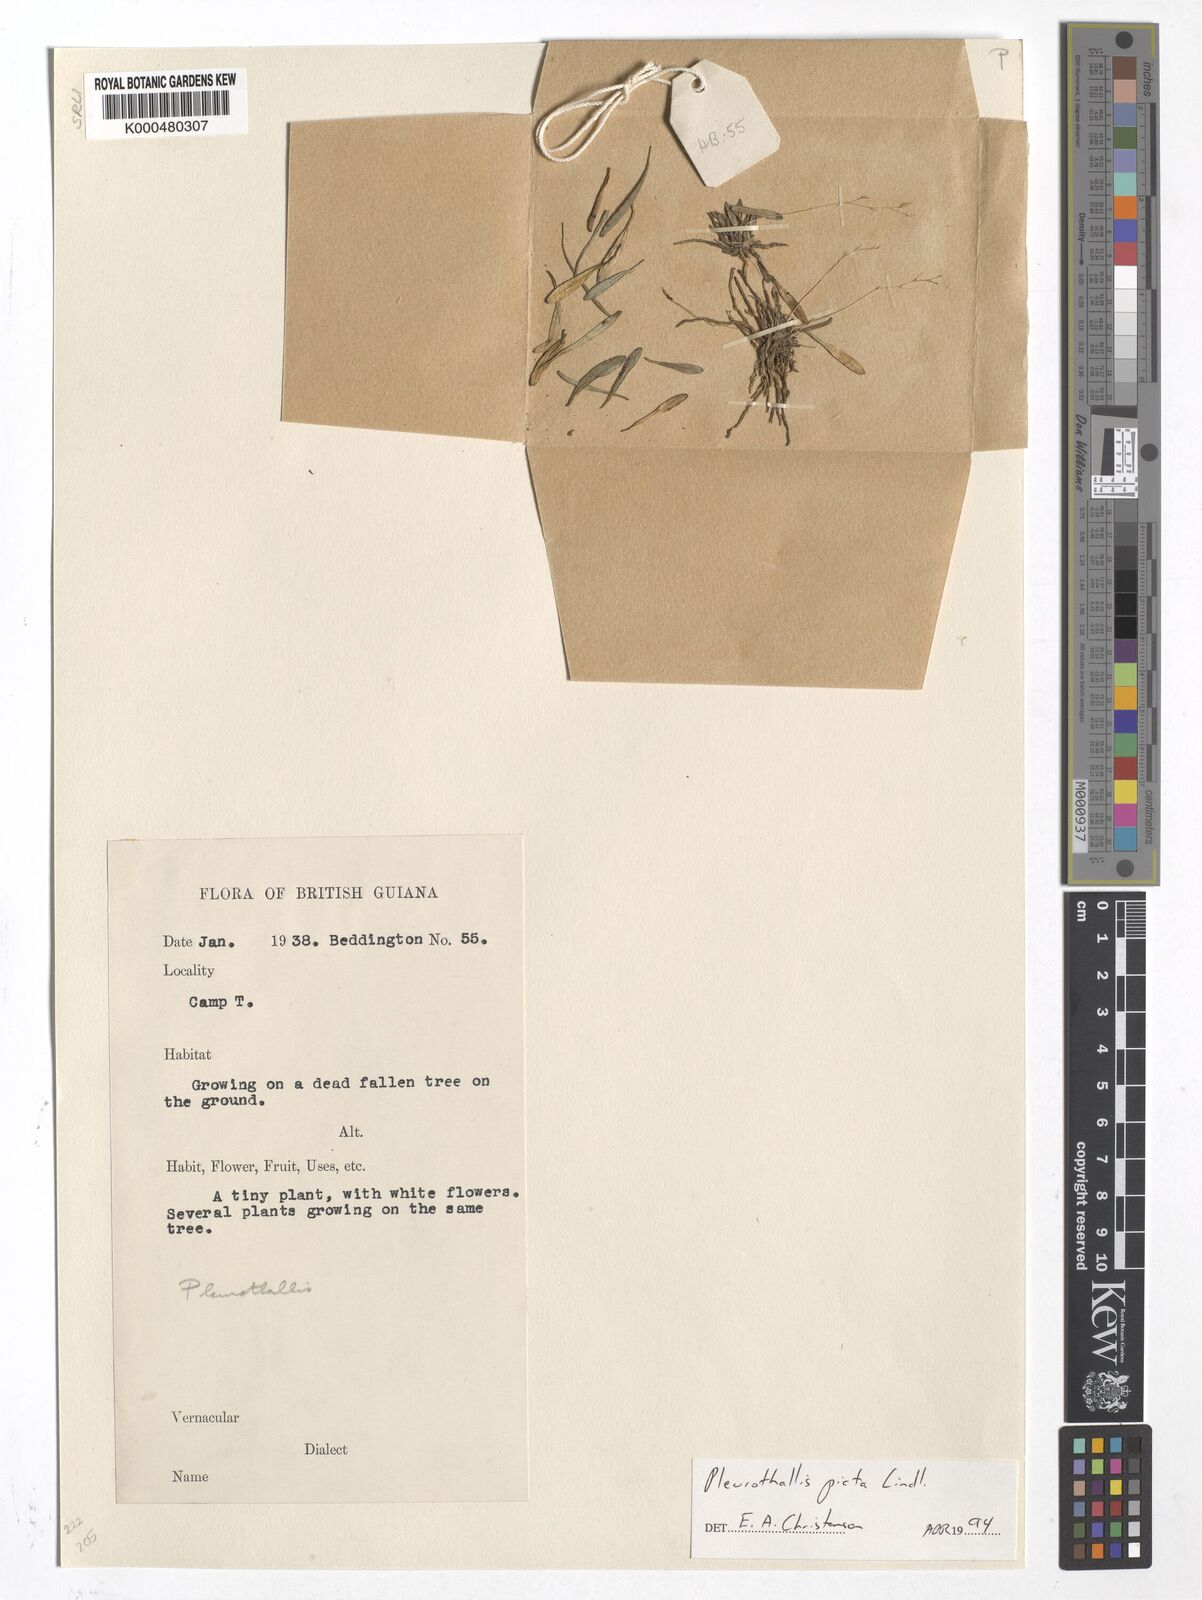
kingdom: Plantae
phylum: Tracheophyta
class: Liliopsida
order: Asparagales
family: Orchidaceae
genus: Specklinia
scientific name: Specklinia picta
